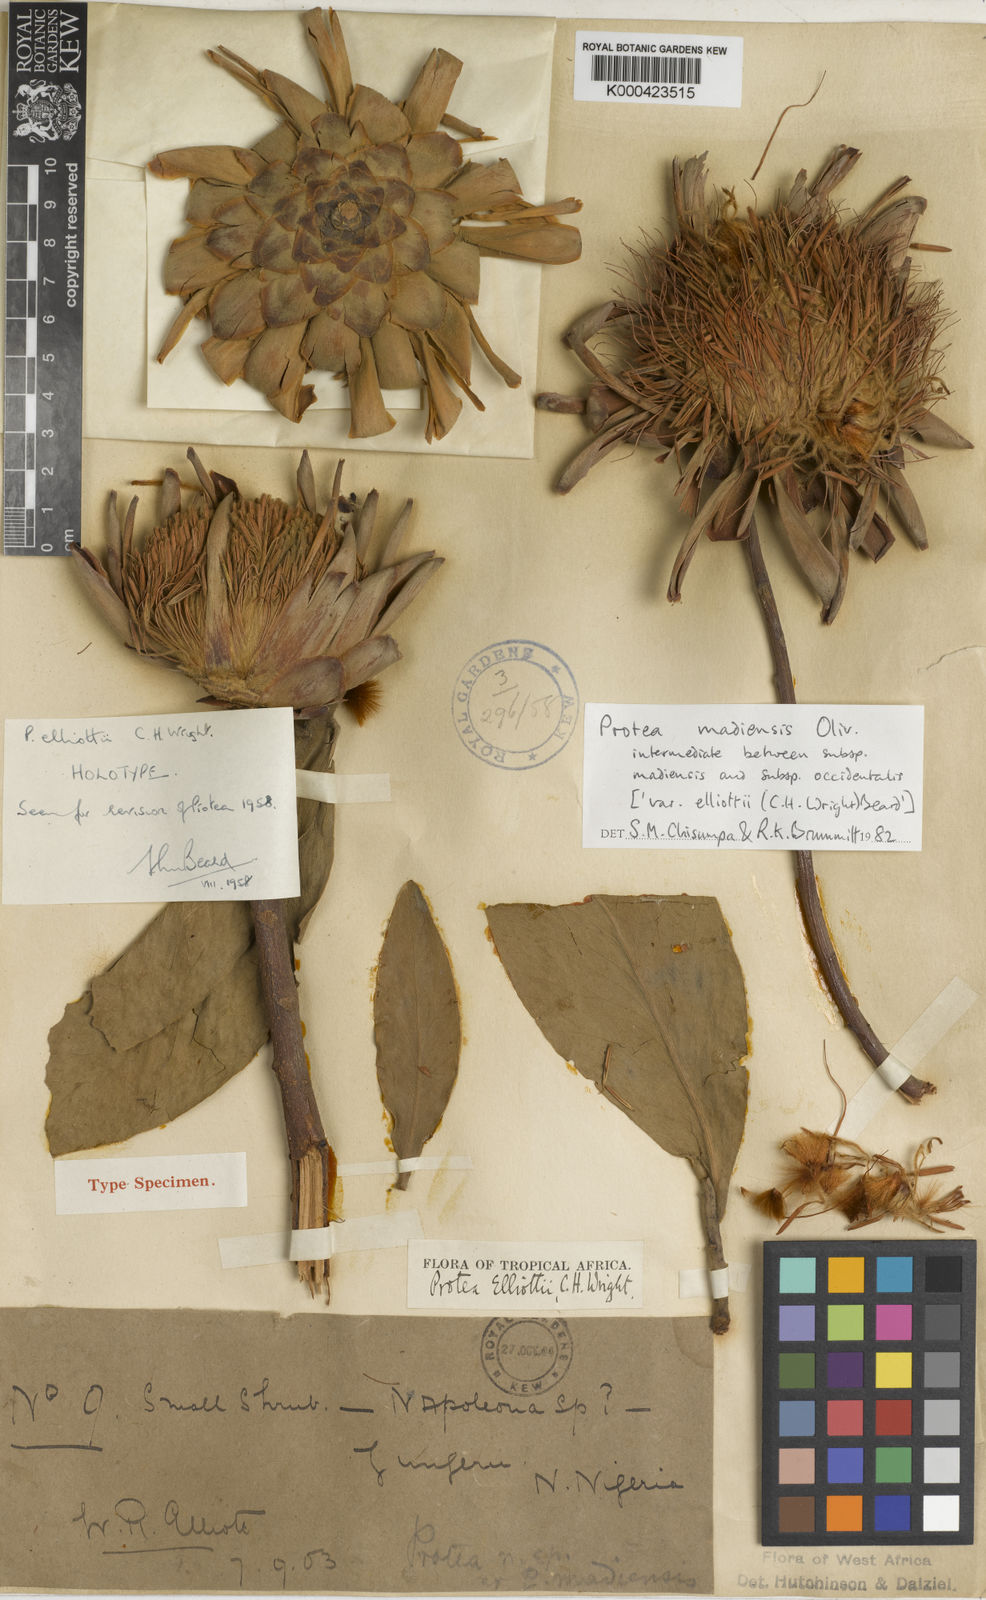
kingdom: Plantae
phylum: Tracheophyta
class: Magnoliopsida
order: Proteales
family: Proteaceae
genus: Protea
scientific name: Protea madiensis
